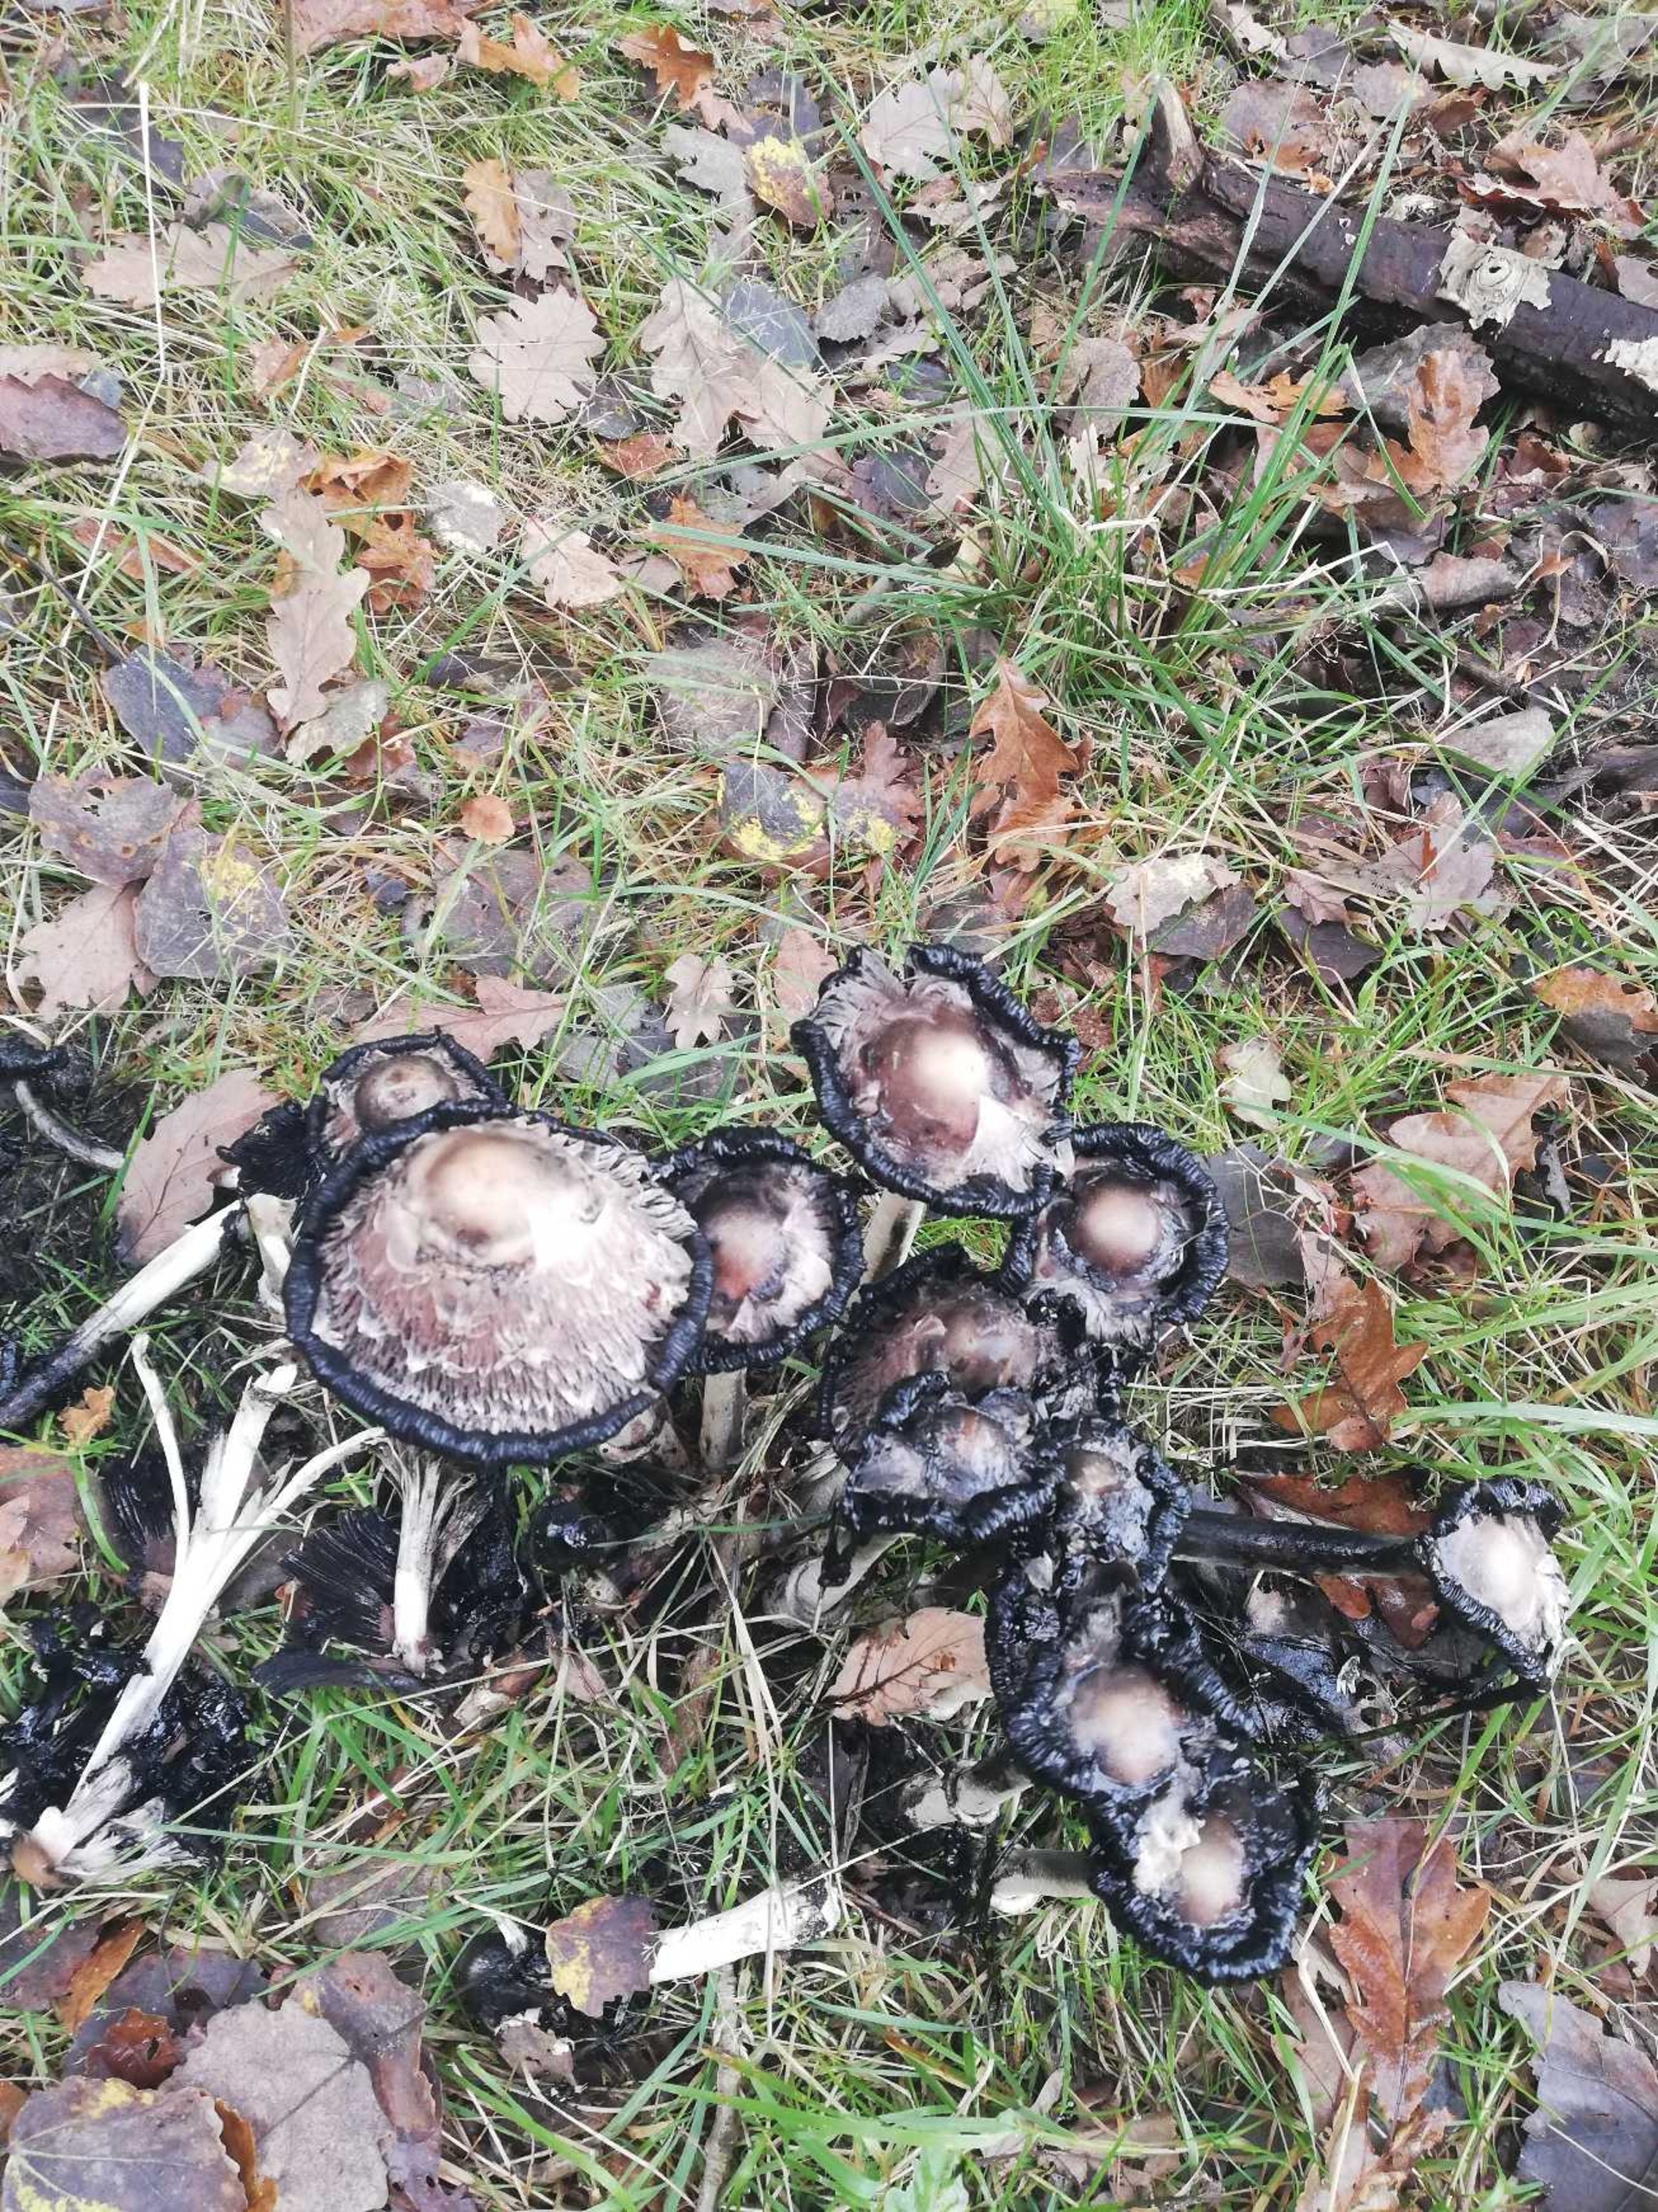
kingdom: Fungi
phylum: Basidiomycota
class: Agaricomycetes
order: Agaricales
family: Agaricaceae
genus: Coprinus
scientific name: Coprinus comatus
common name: Stor parykhat
